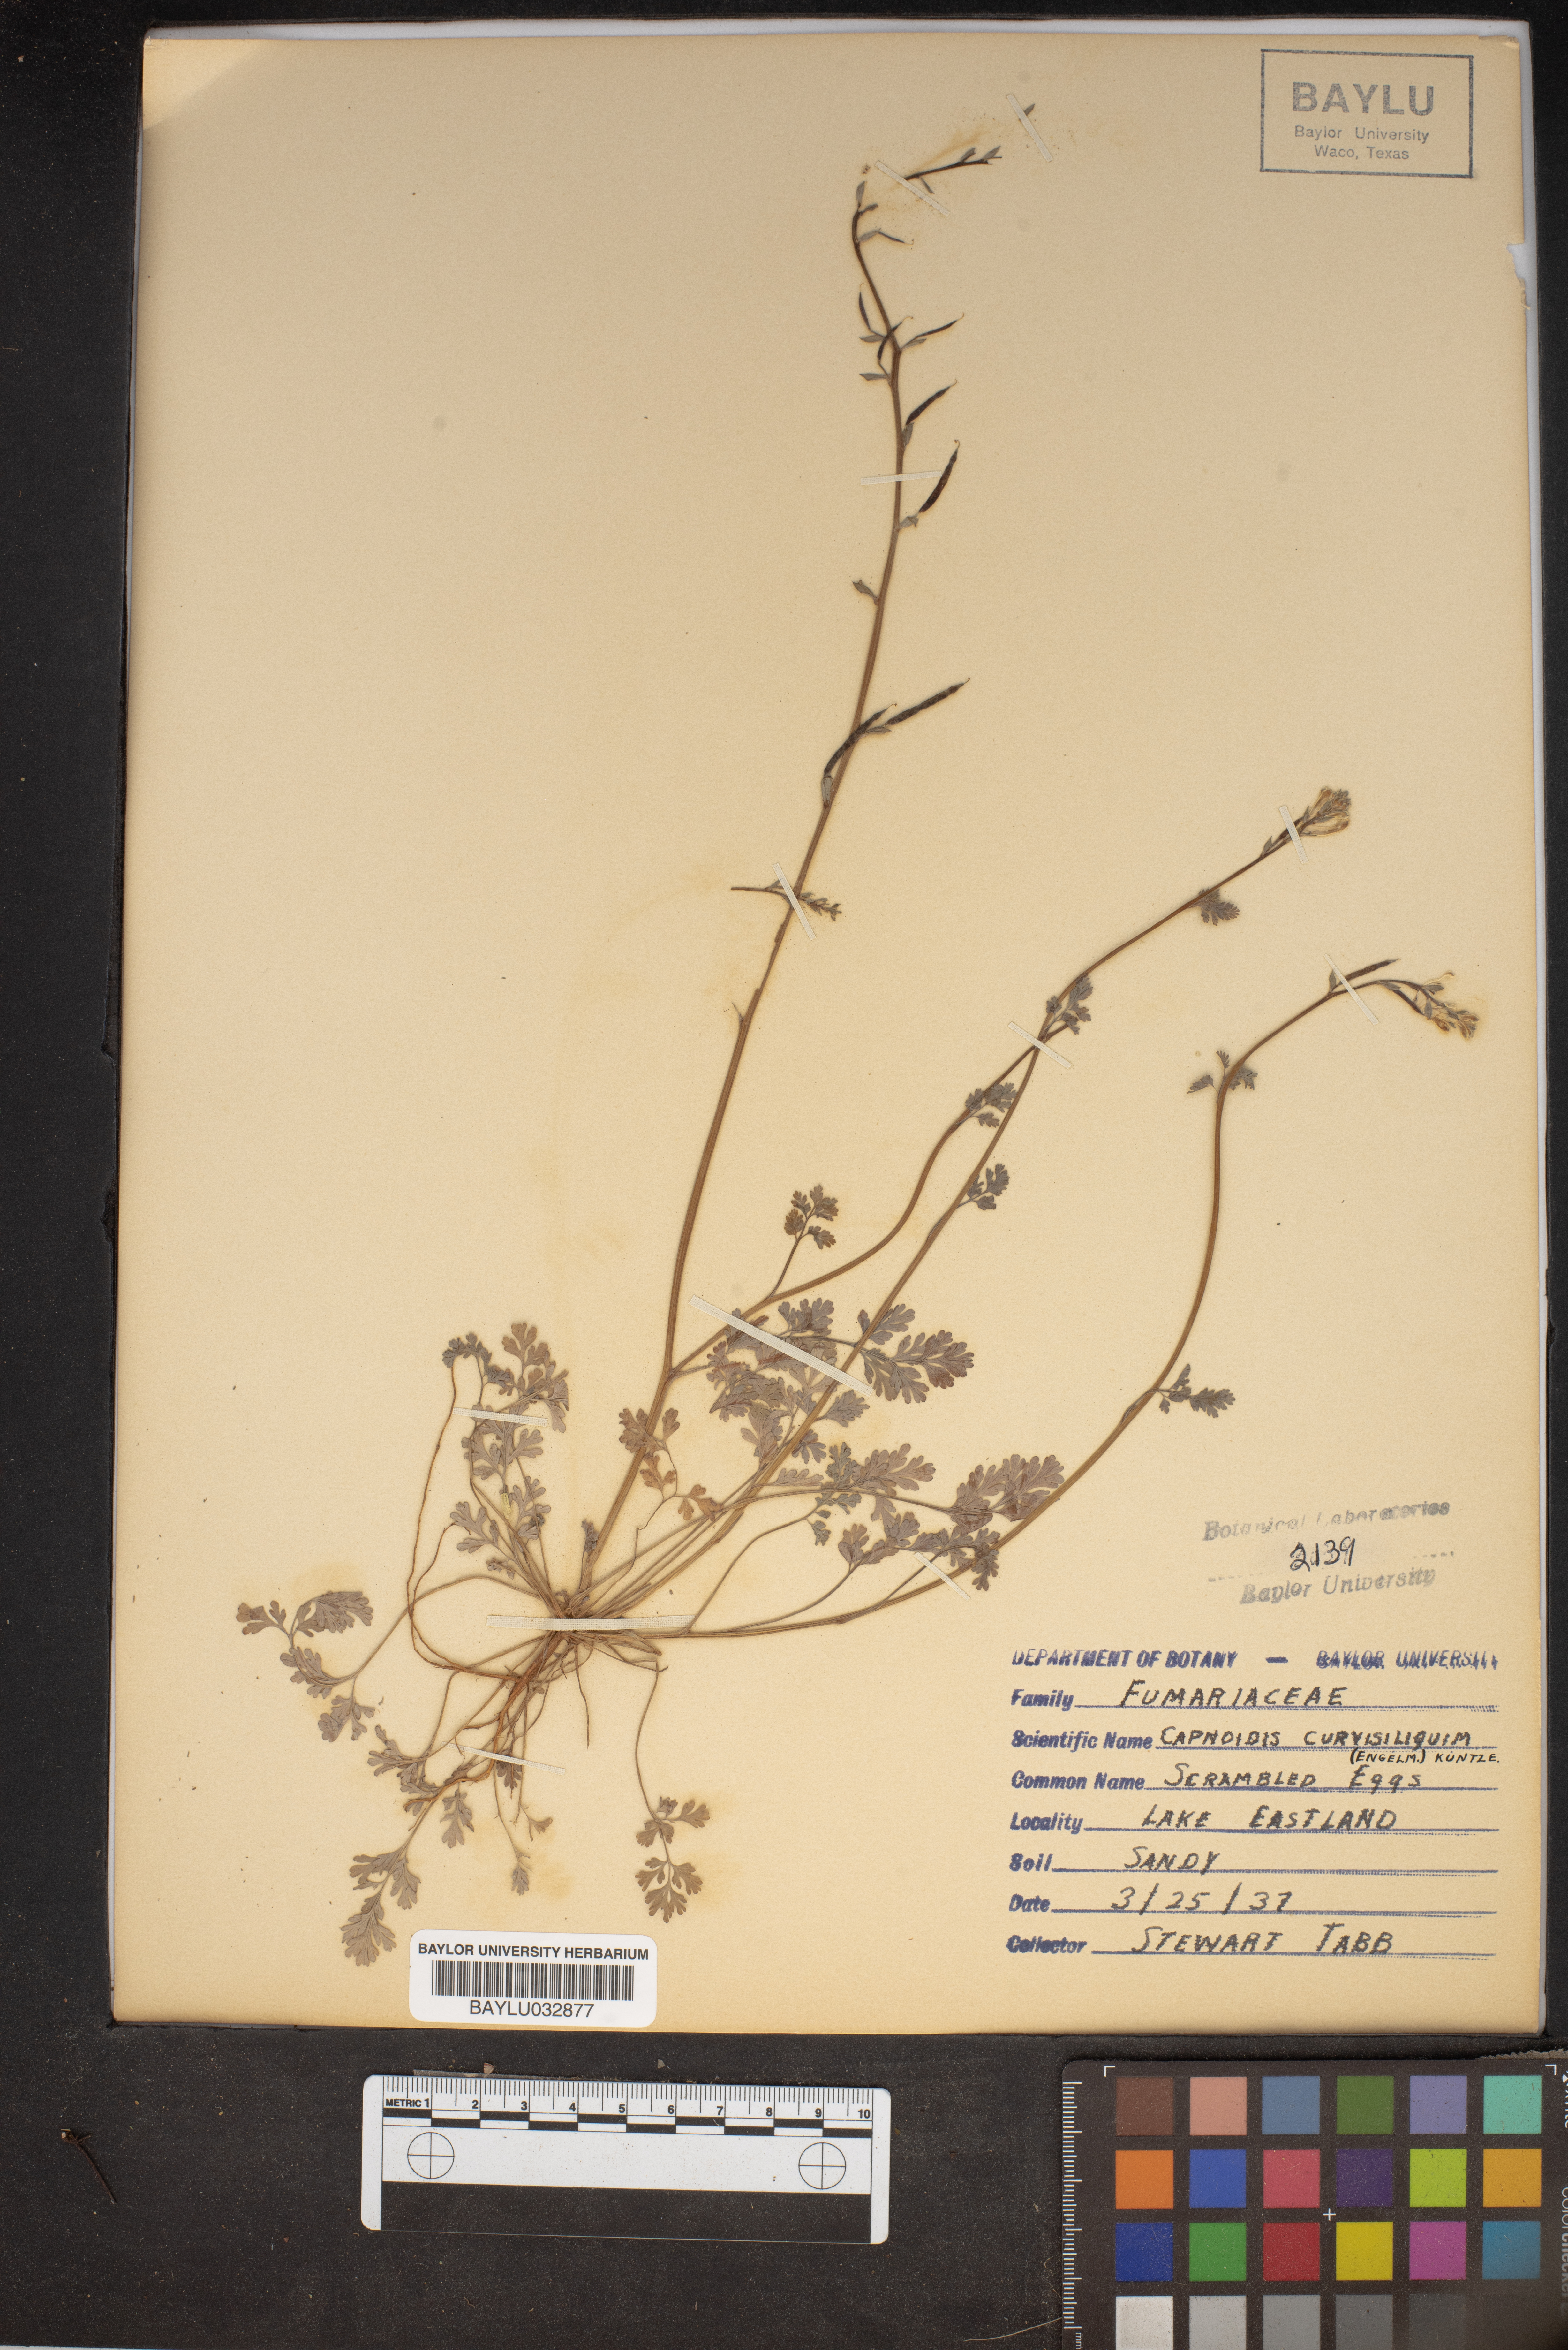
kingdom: Plantae
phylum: Tracheophyta
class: Magnoliopsida
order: Ranunculales
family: Papaveraceae
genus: Corydalis
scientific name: Corydalis curvisiliqua
